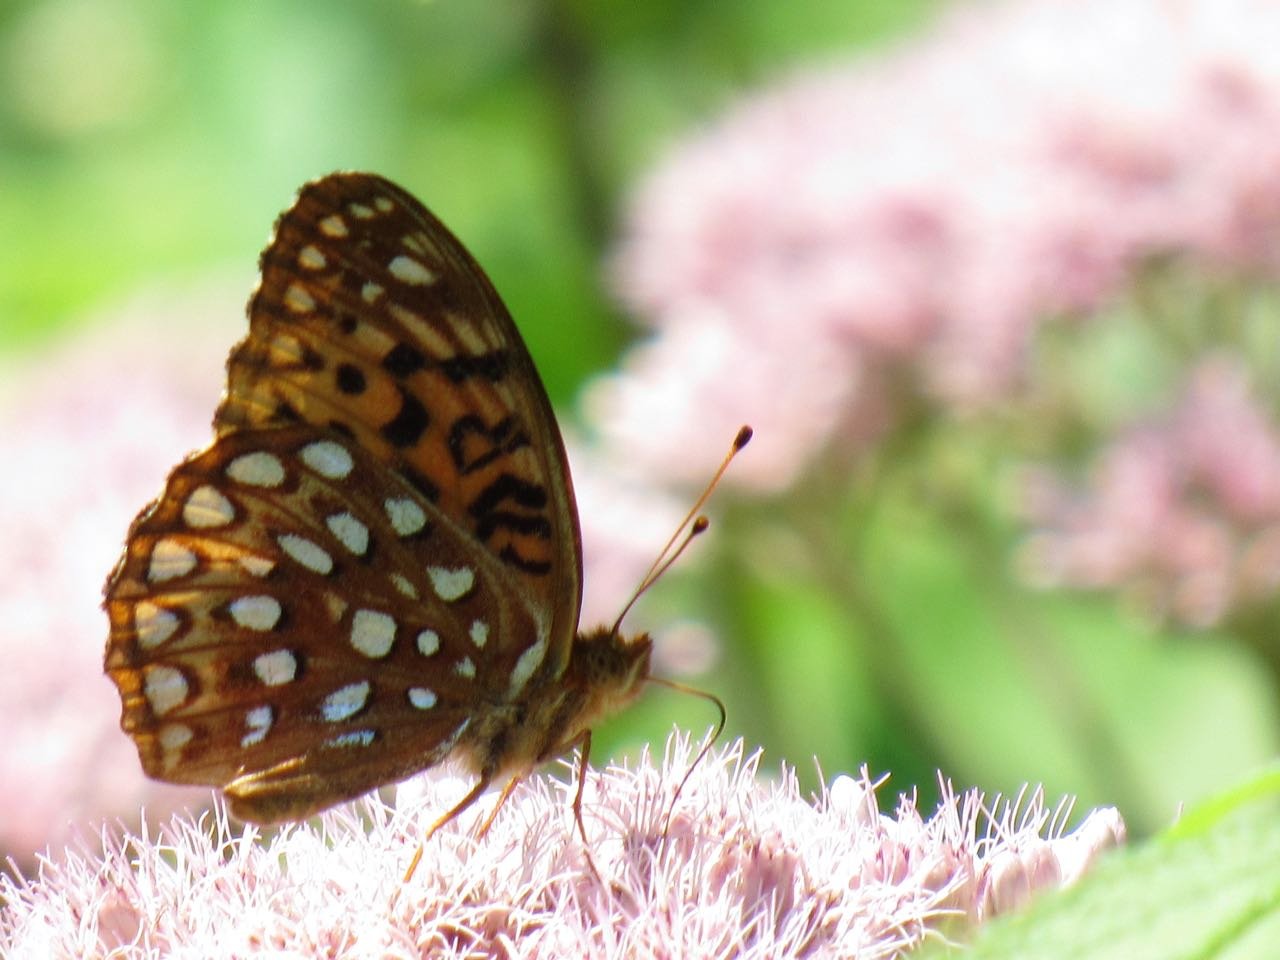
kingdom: Animalia
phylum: Arthropoda
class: Insecta
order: Lepidoptera
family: Nymphalidae
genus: Speyeria
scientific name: Speyeria aphrodite
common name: Aphrodite Fritillary
